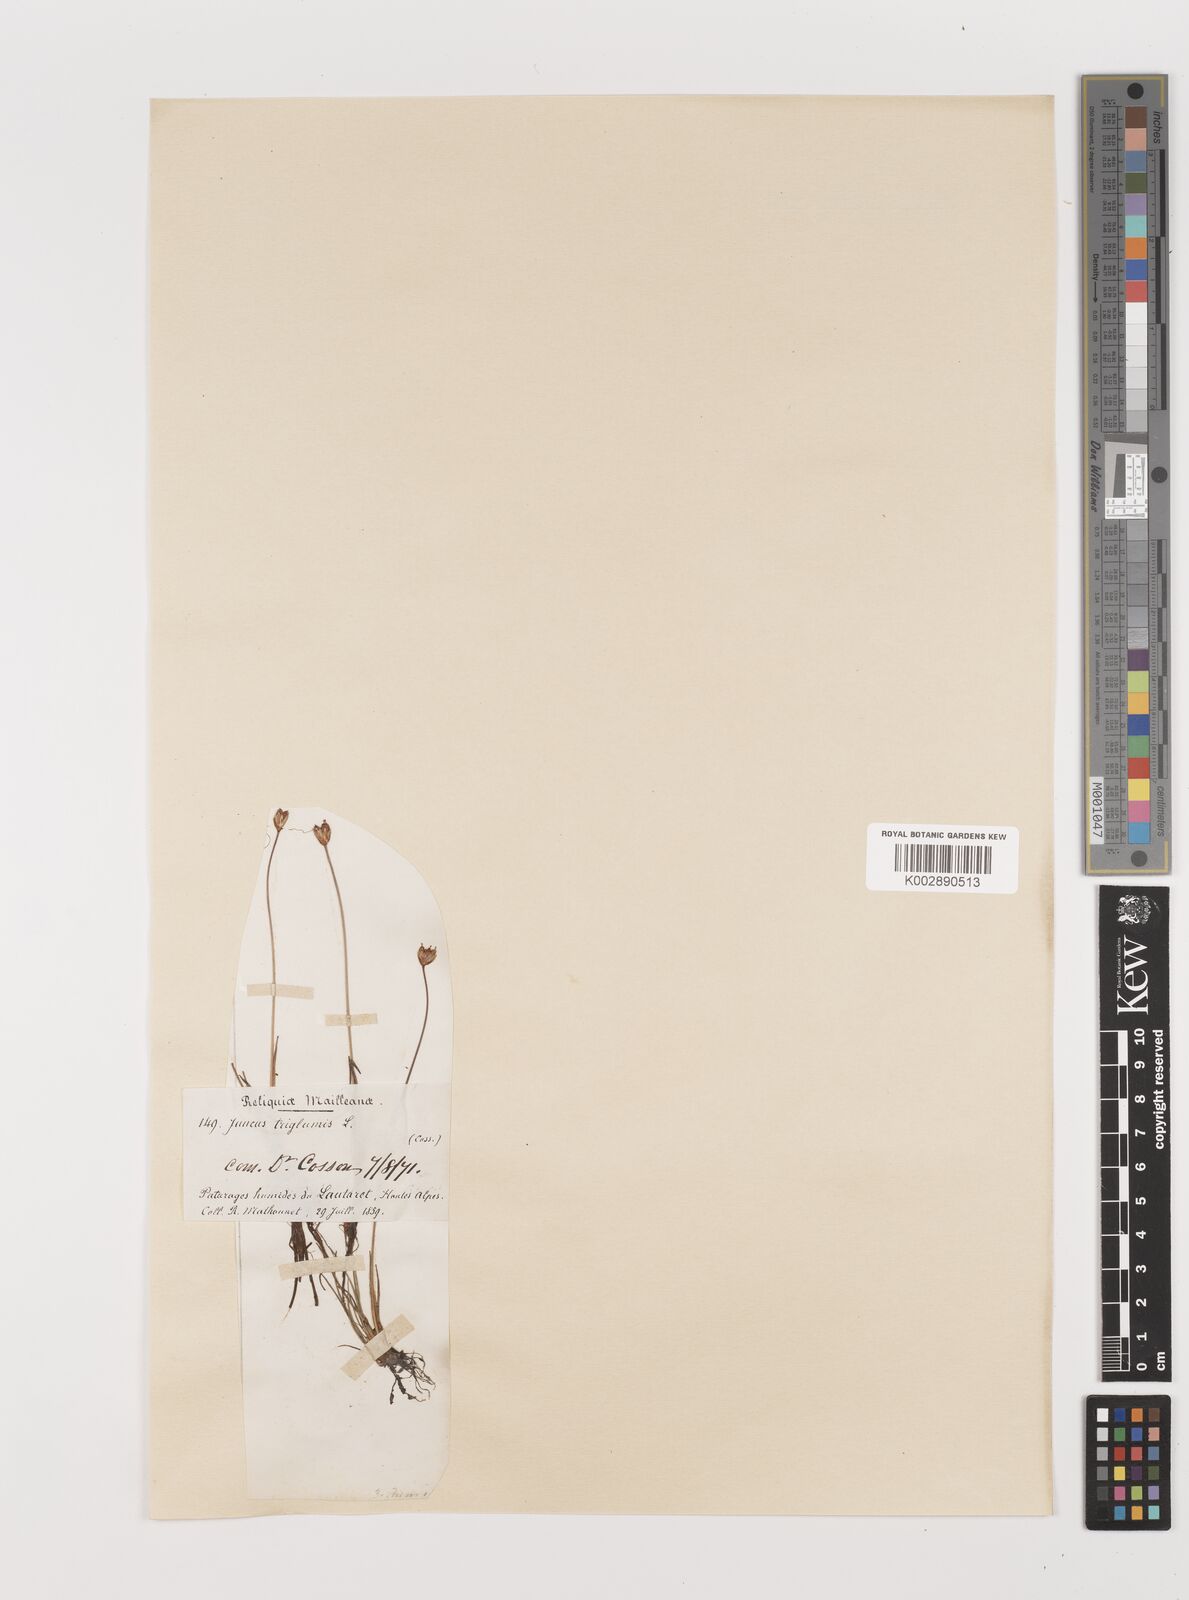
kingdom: Plantae
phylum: Tracheophyta
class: Liliopsida
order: Poales
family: Juncaceae
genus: Juncus
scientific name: Juncus triglumis
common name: Three-flowered rush
